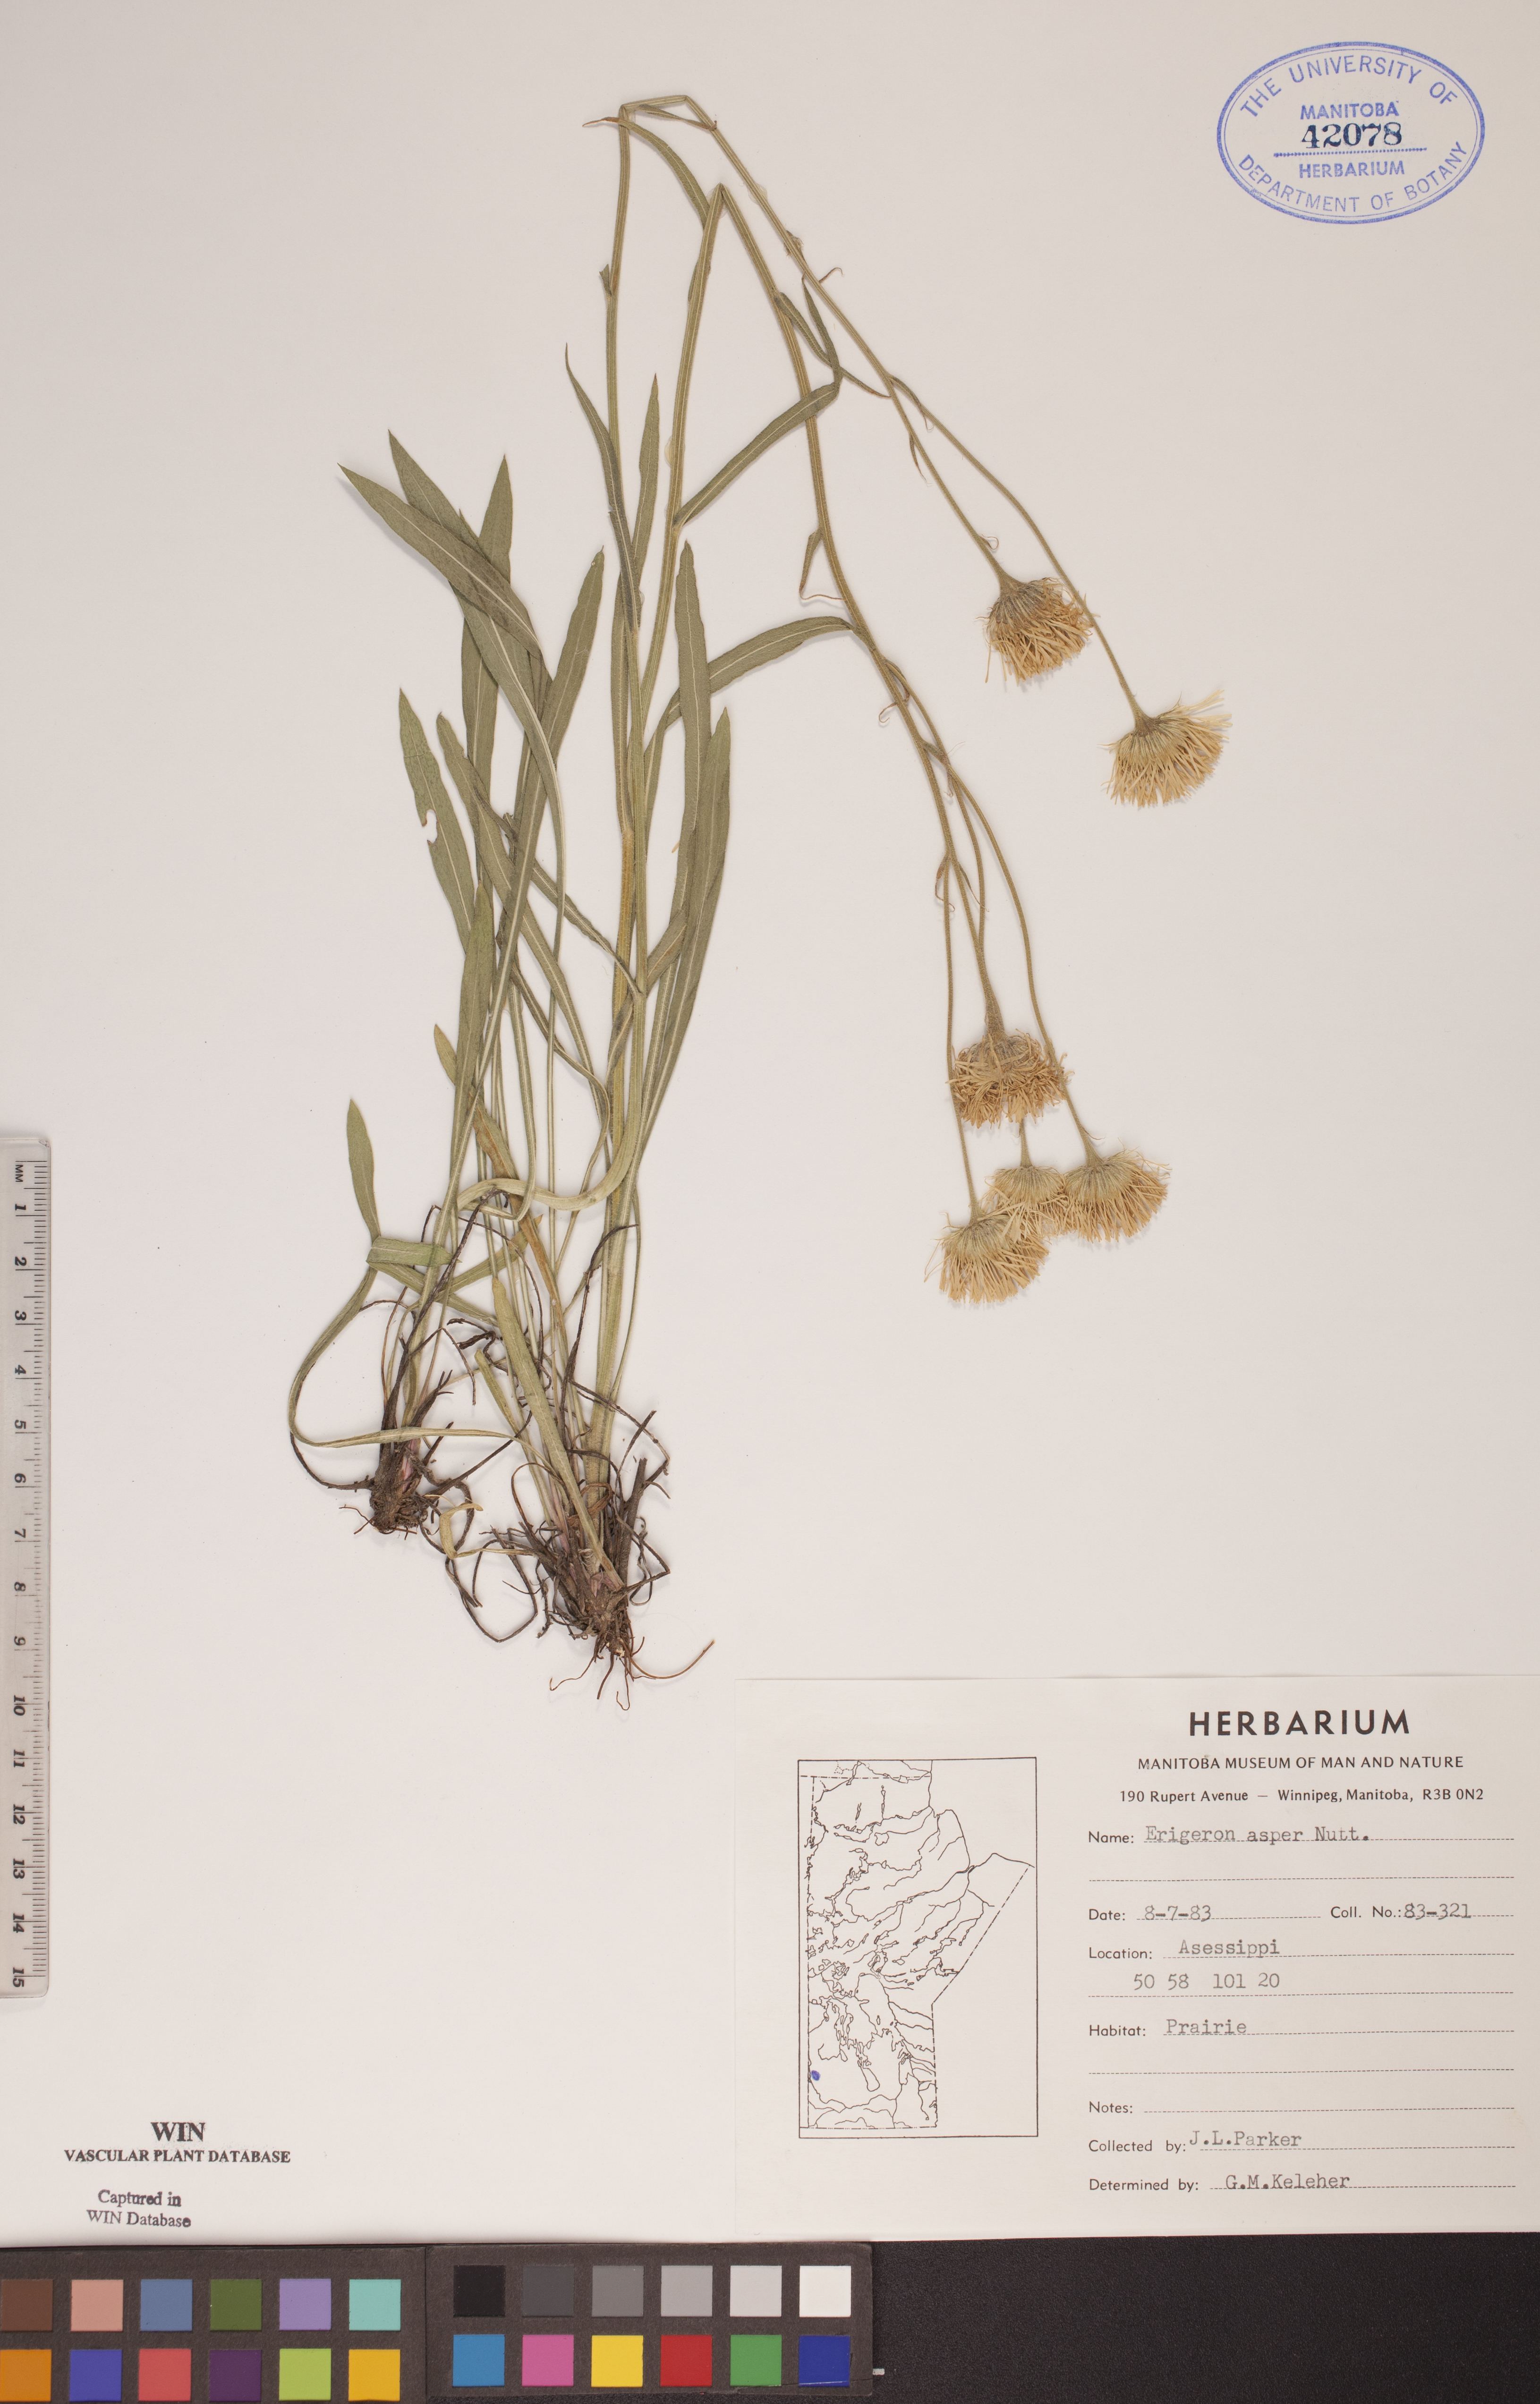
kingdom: Plantae
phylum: Tracheophyta
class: Magnoliopsida
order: Asterales
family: Asteraceae
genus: Erigeron
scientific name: Erigeron glabellus
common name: Smooth fleabane
